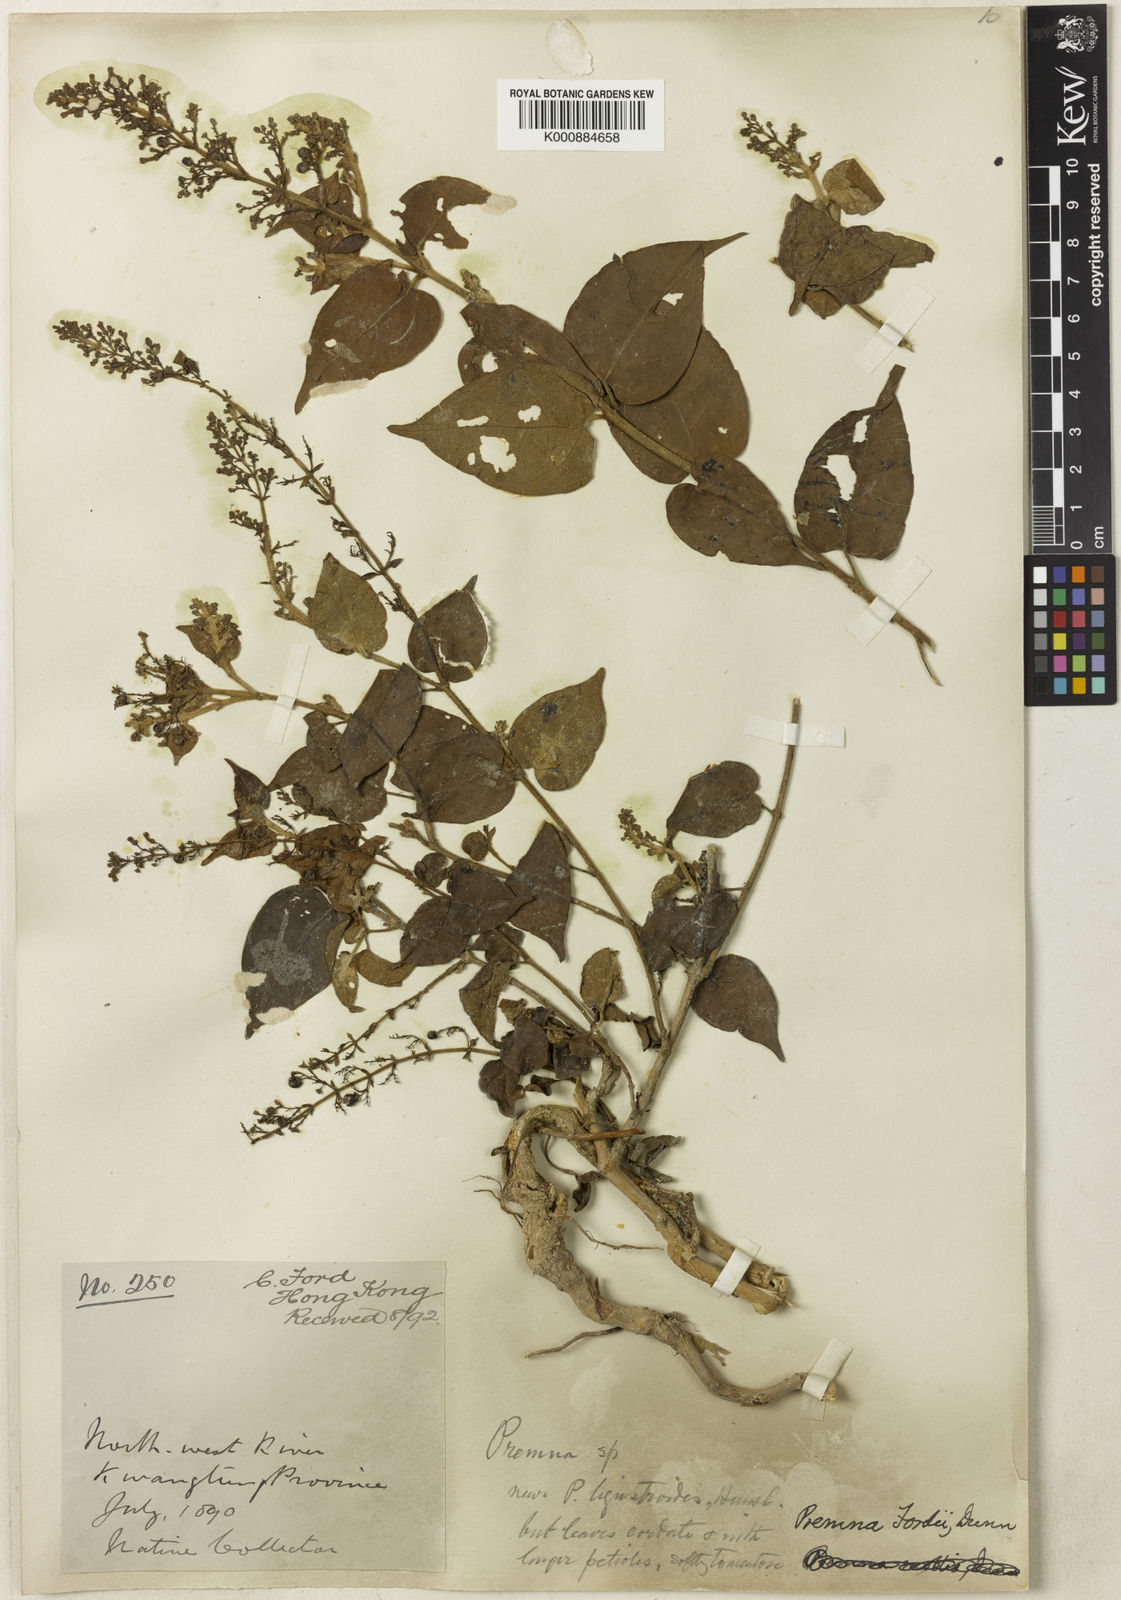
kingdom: Plantae
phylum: Tracheophyta
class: Magnoliopsida
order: Lamiales
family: Lamiaceae
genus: Premna
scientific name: Premna fordii
